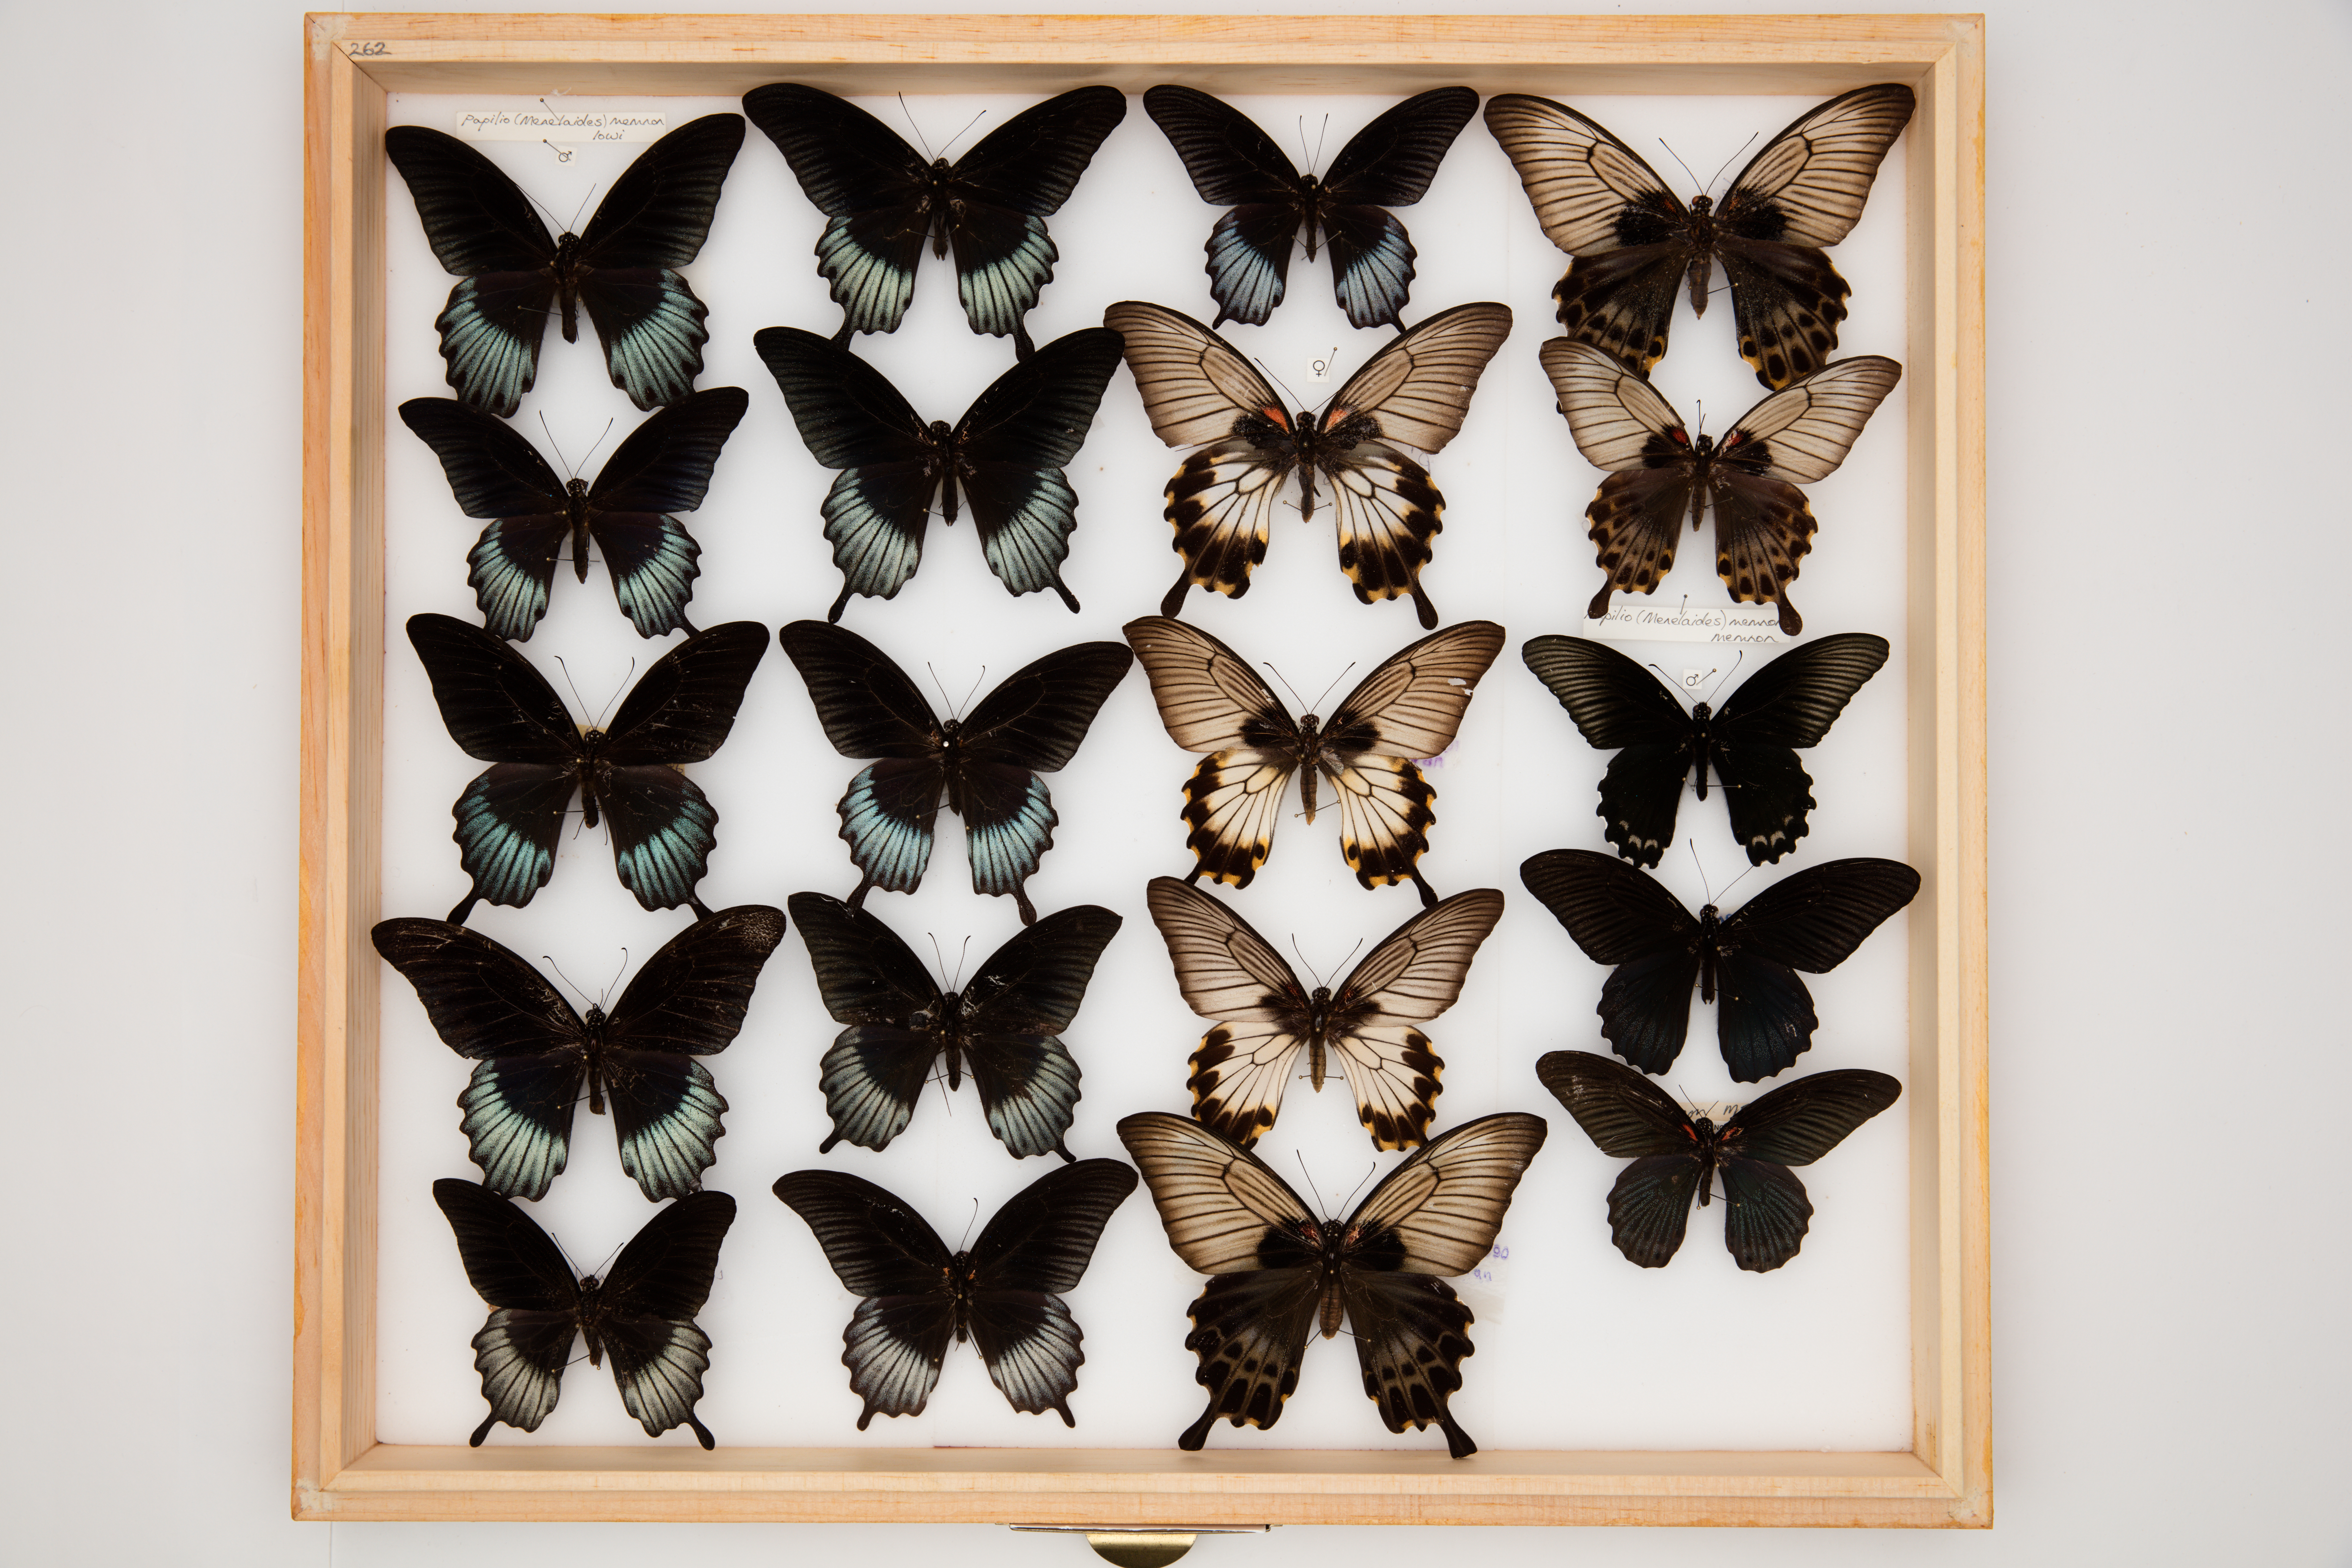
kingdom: Animalia
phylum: Arthropoda
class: Insecta
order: Lepidoptera
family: Papilionidae
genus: Papilio
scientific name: Papilio memnon
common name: Great mormon
